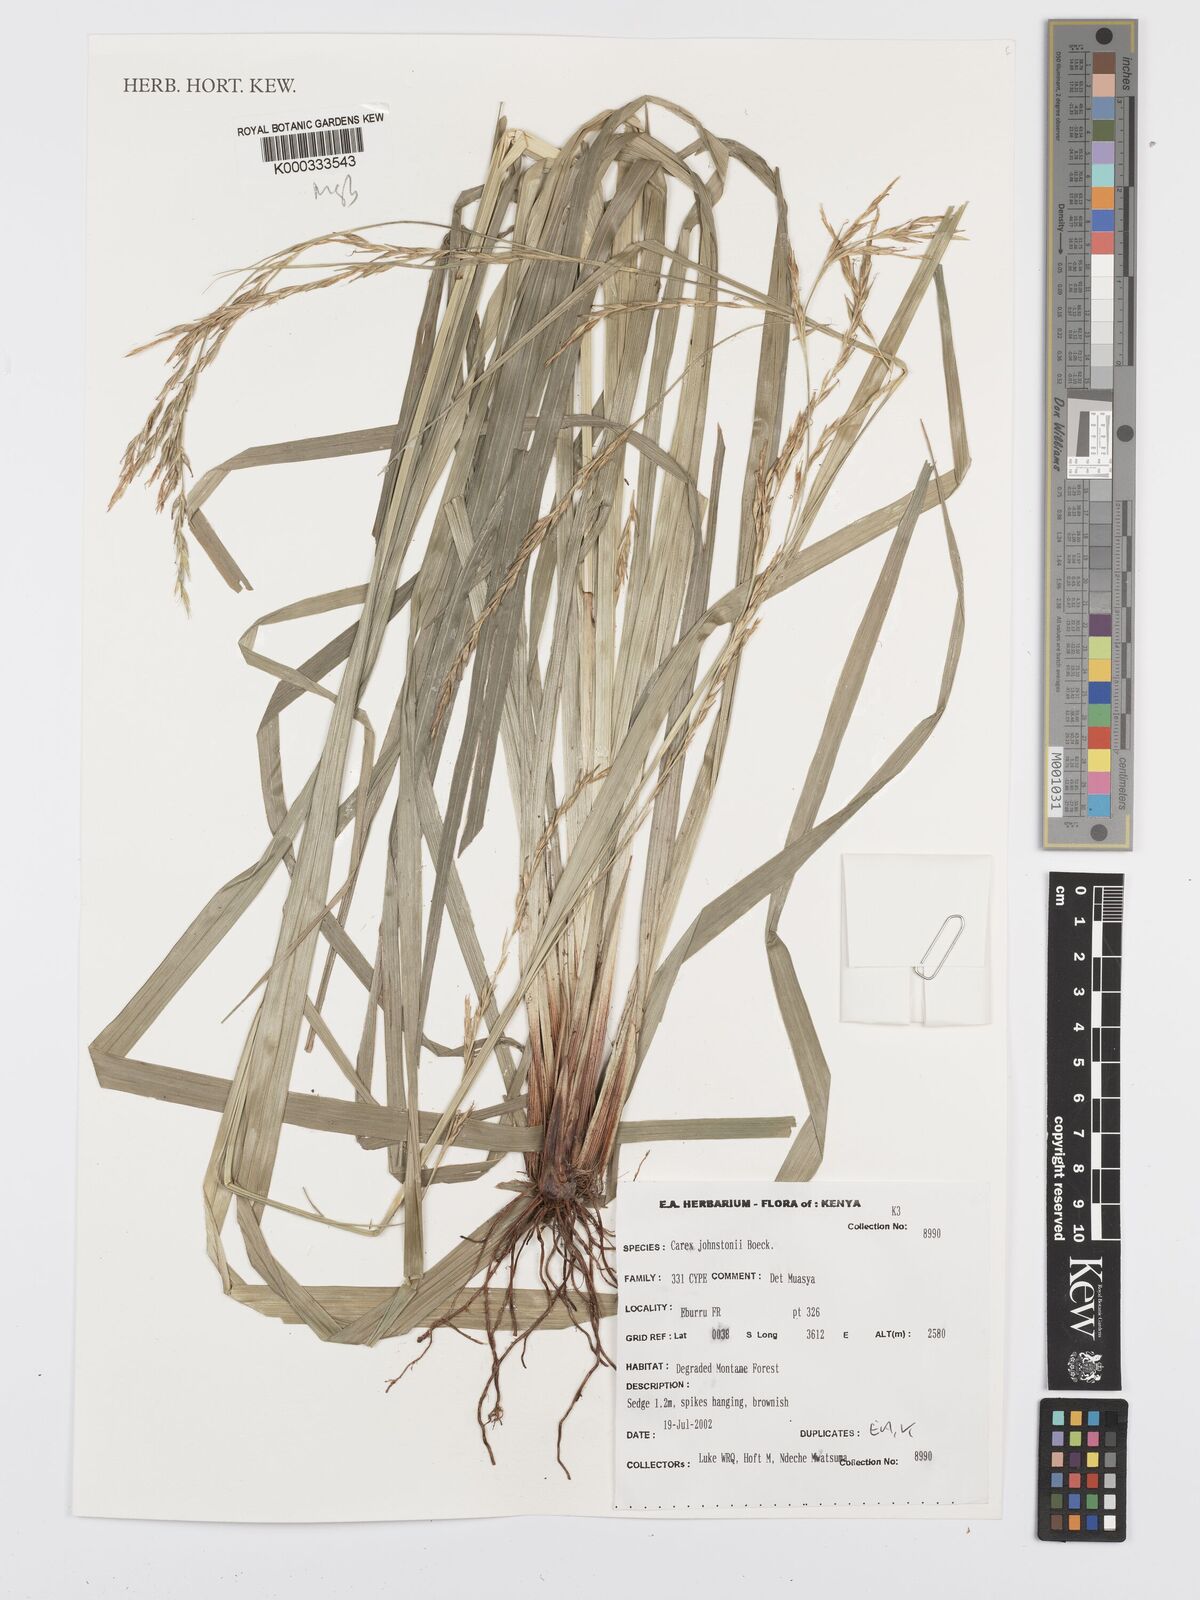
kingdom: Plantae
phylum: Tracheophyta
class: Liliopsida
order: Poales
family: Cyperaceae
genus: Carex
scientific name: Carex johnstonii
